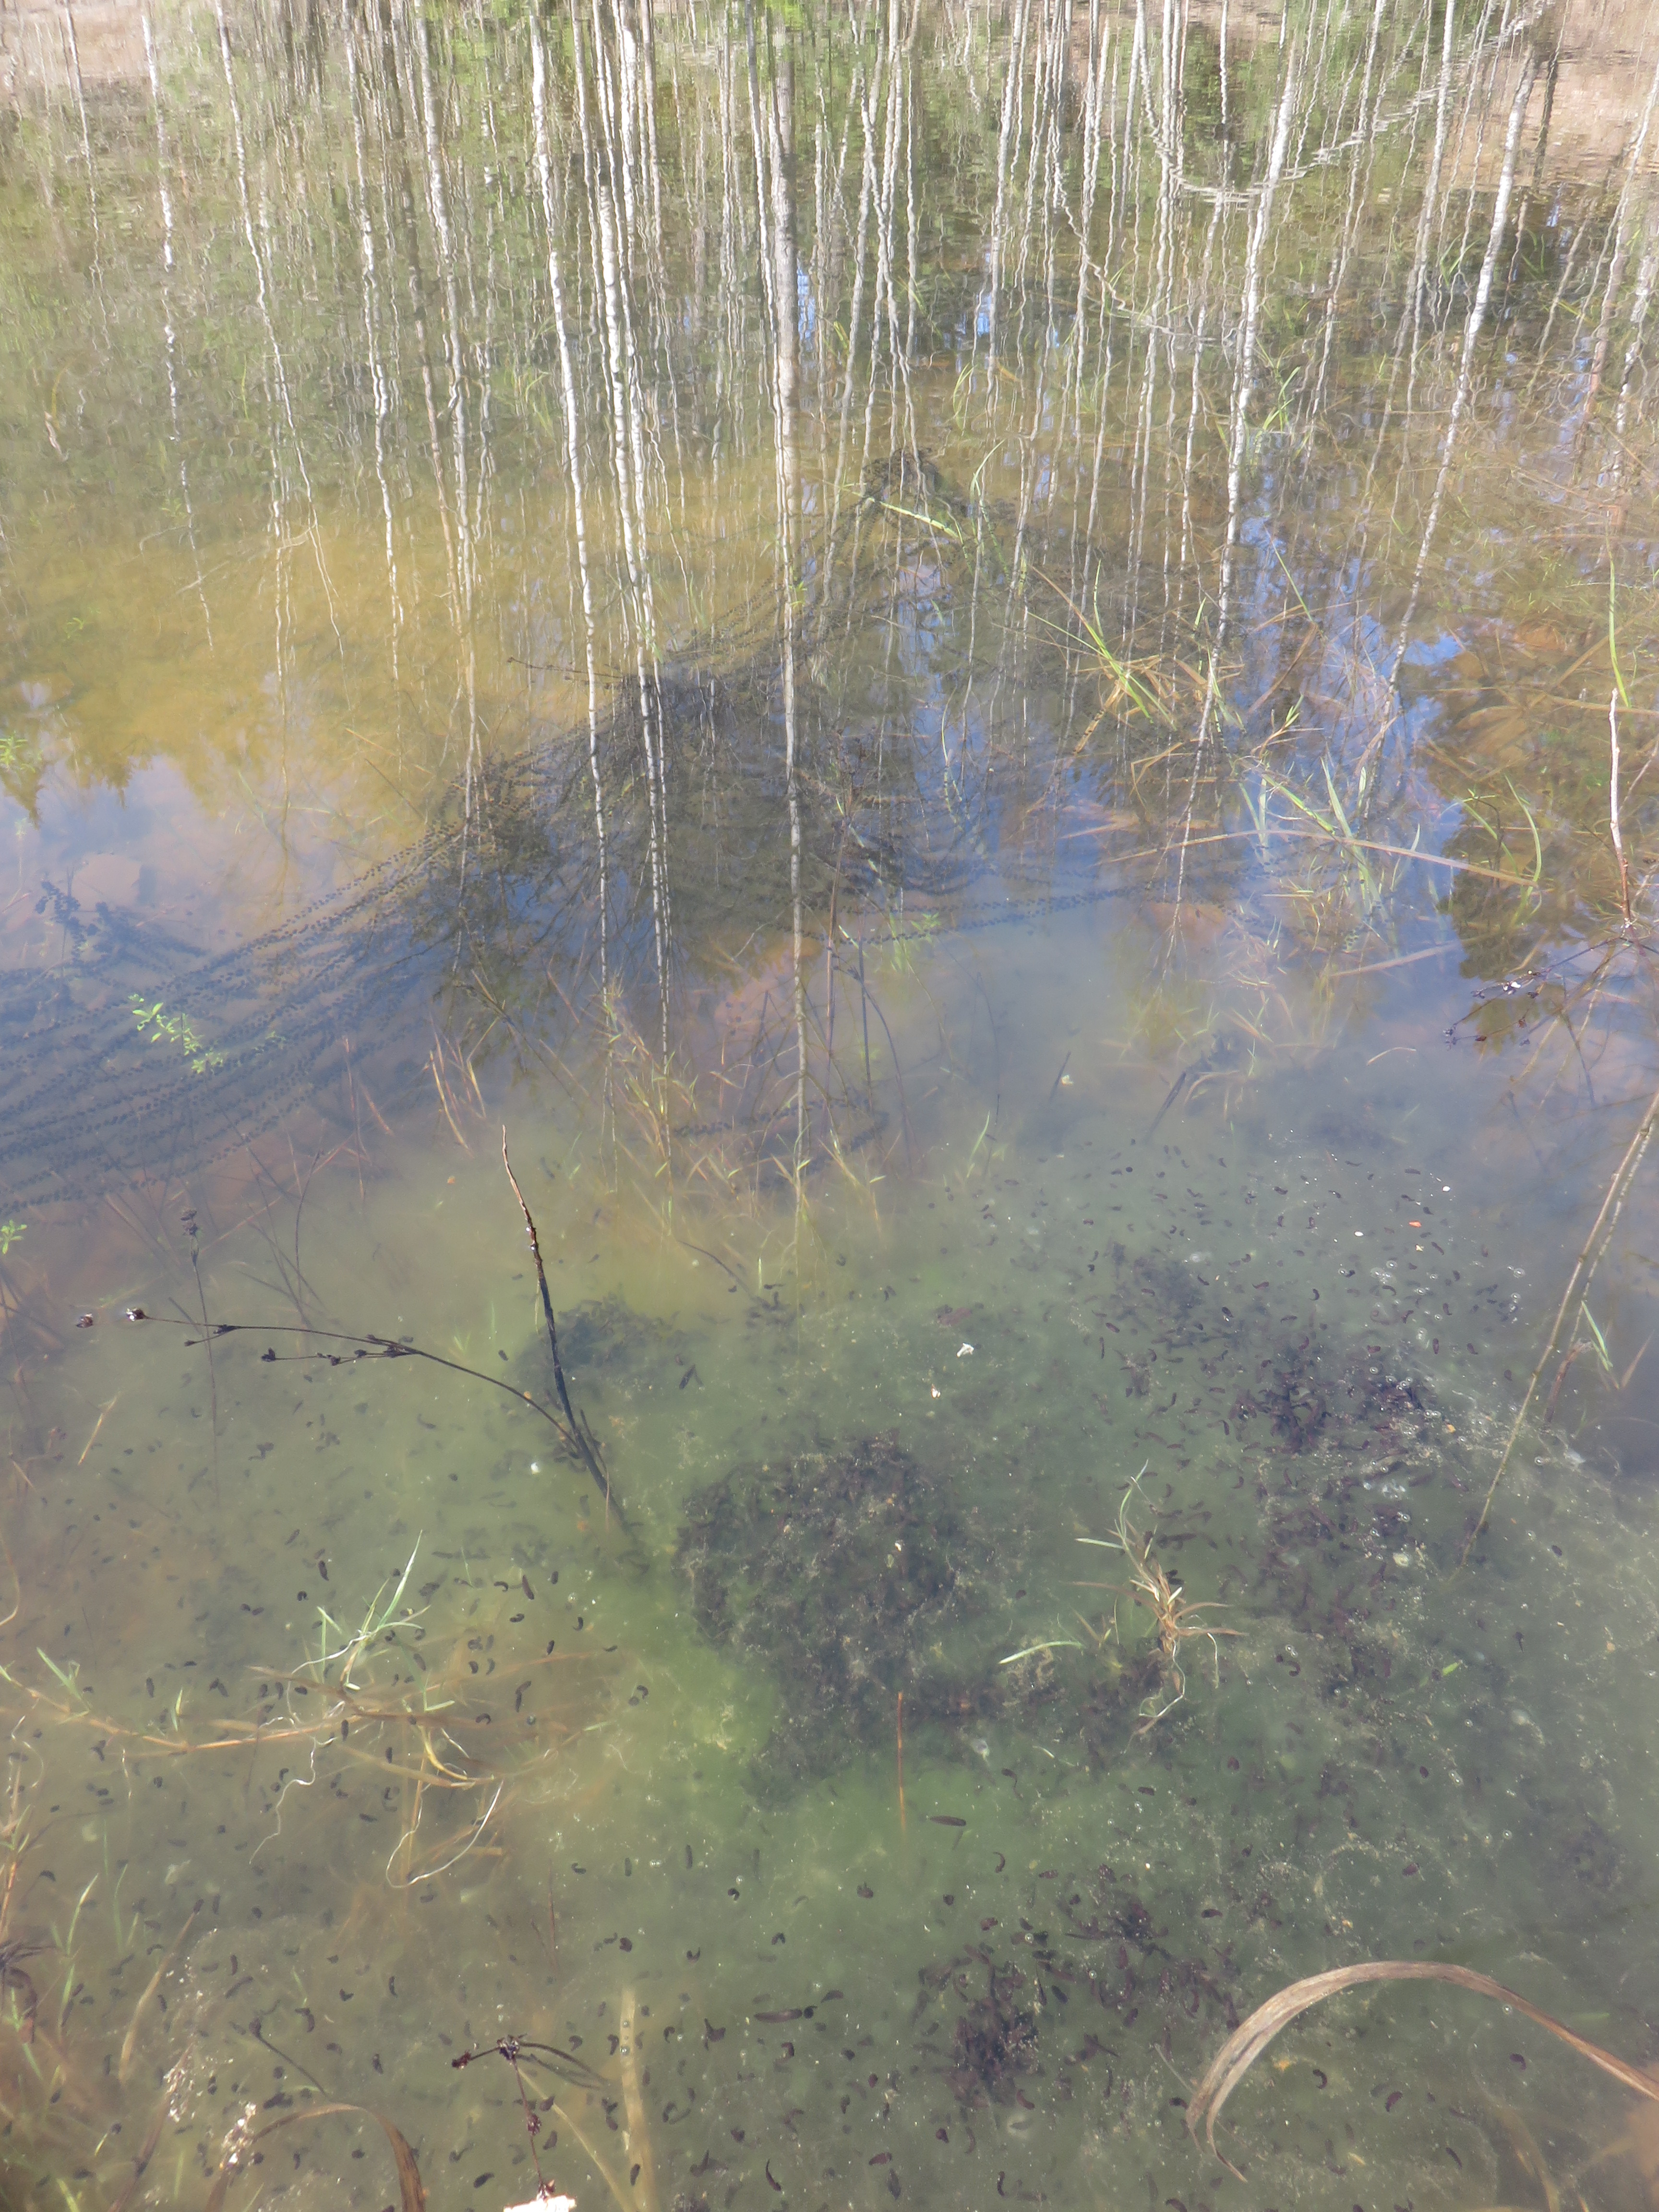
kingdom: Animalia
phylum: Chordata
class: Amphibia
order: Anura
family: Bufonidae
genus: Bufo
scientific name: Bufo bufo
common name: Common toad
